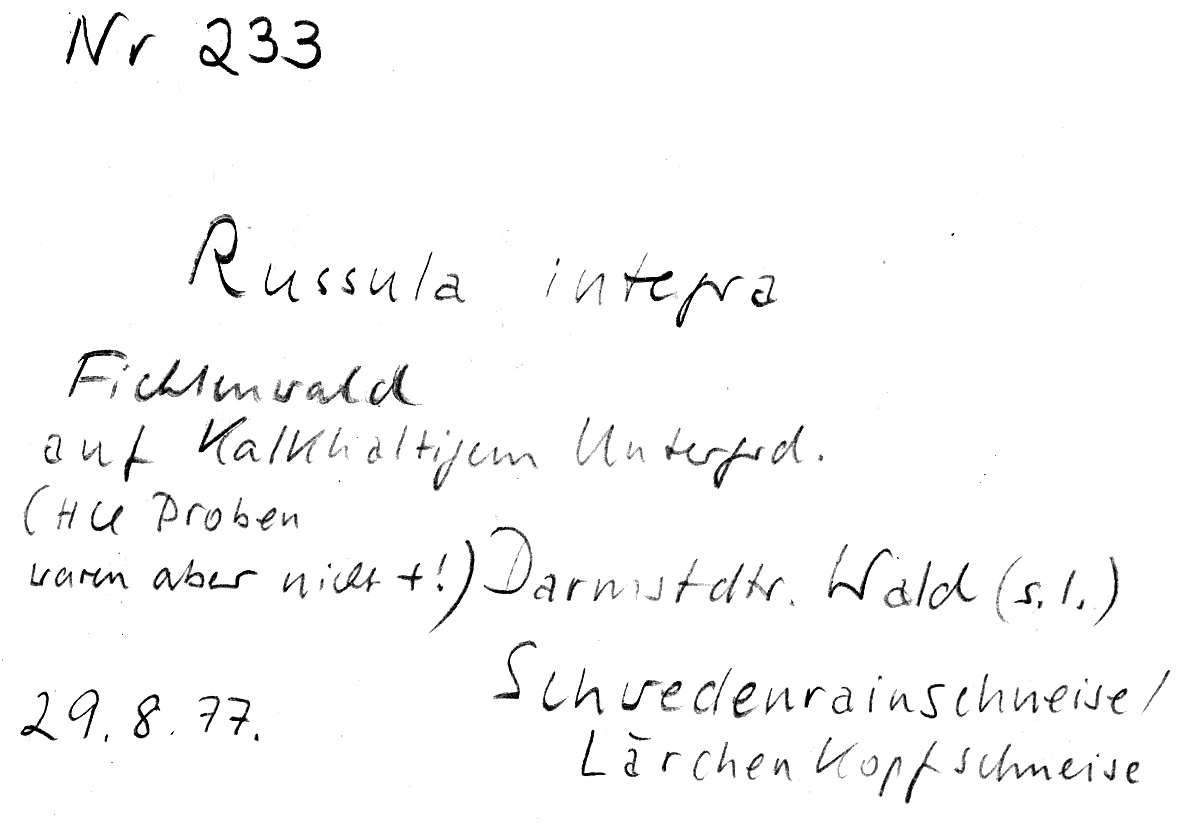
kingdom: Fungi
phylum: Basidiomycota
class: Agaricomycetes
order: Russulales
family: Russulaceae
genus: Russula
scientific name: Russula integra
